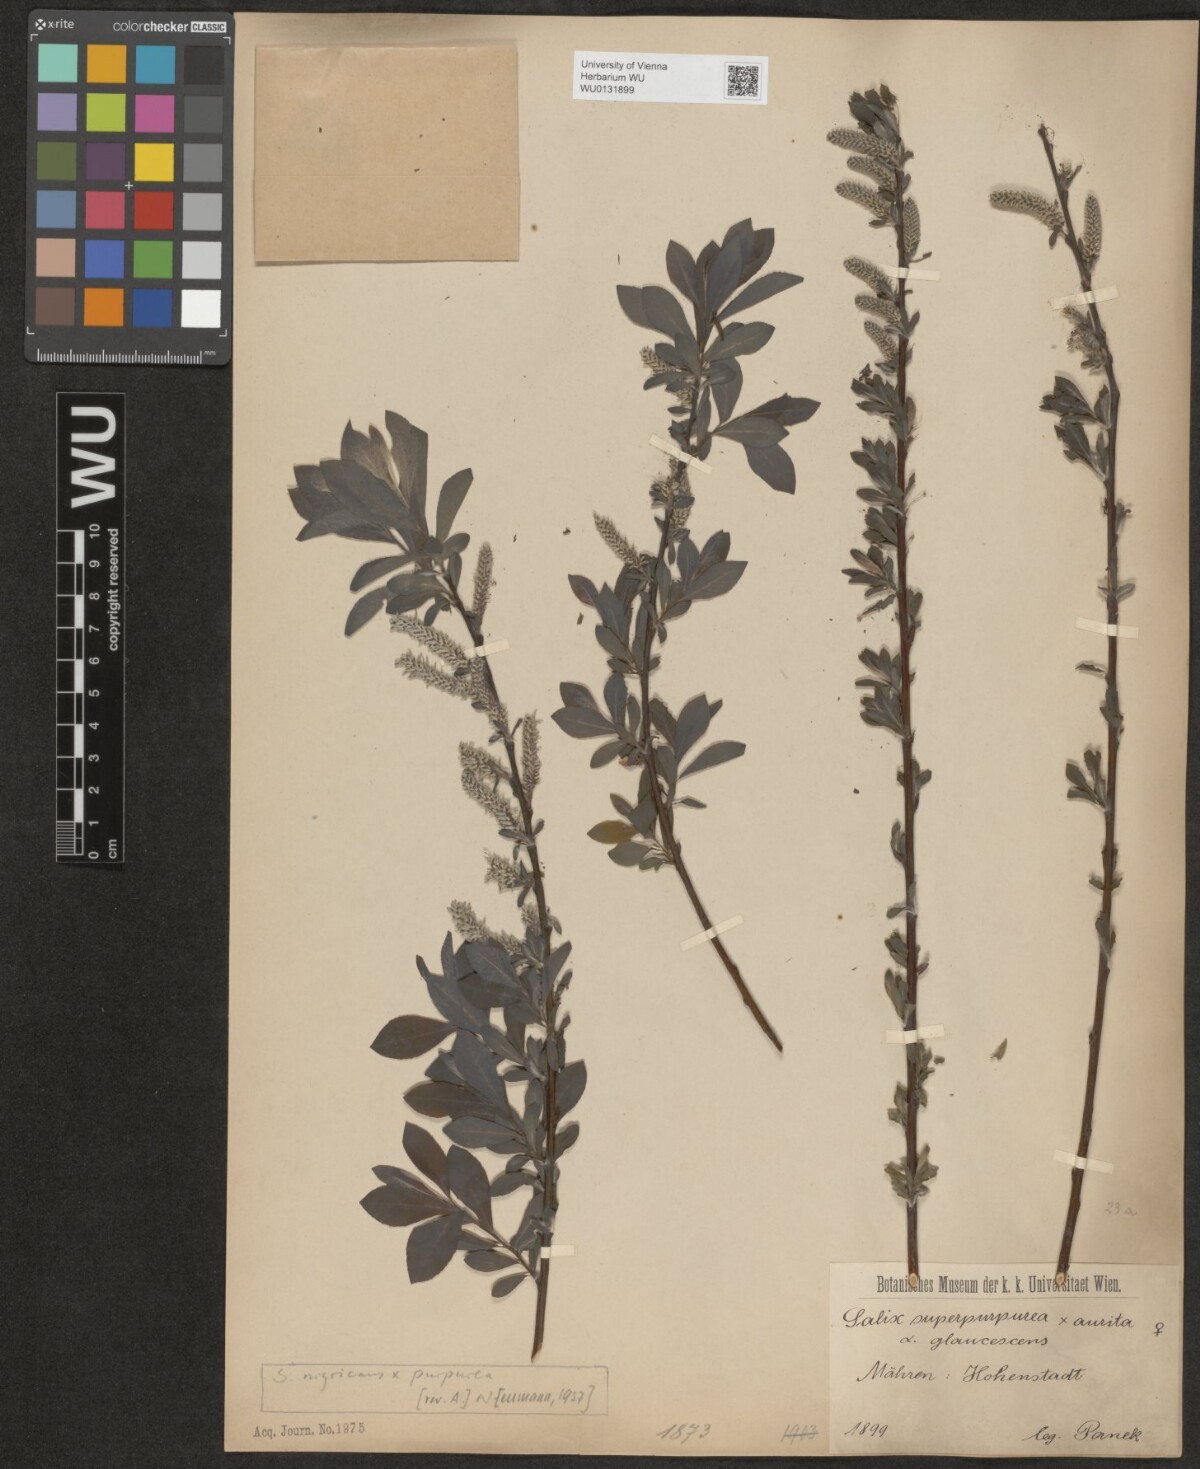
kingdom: Plantae
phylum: Tracheophyta
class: Magnoliopsida
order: Malpighiales
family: Salicaceae
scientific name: Salicaceae
